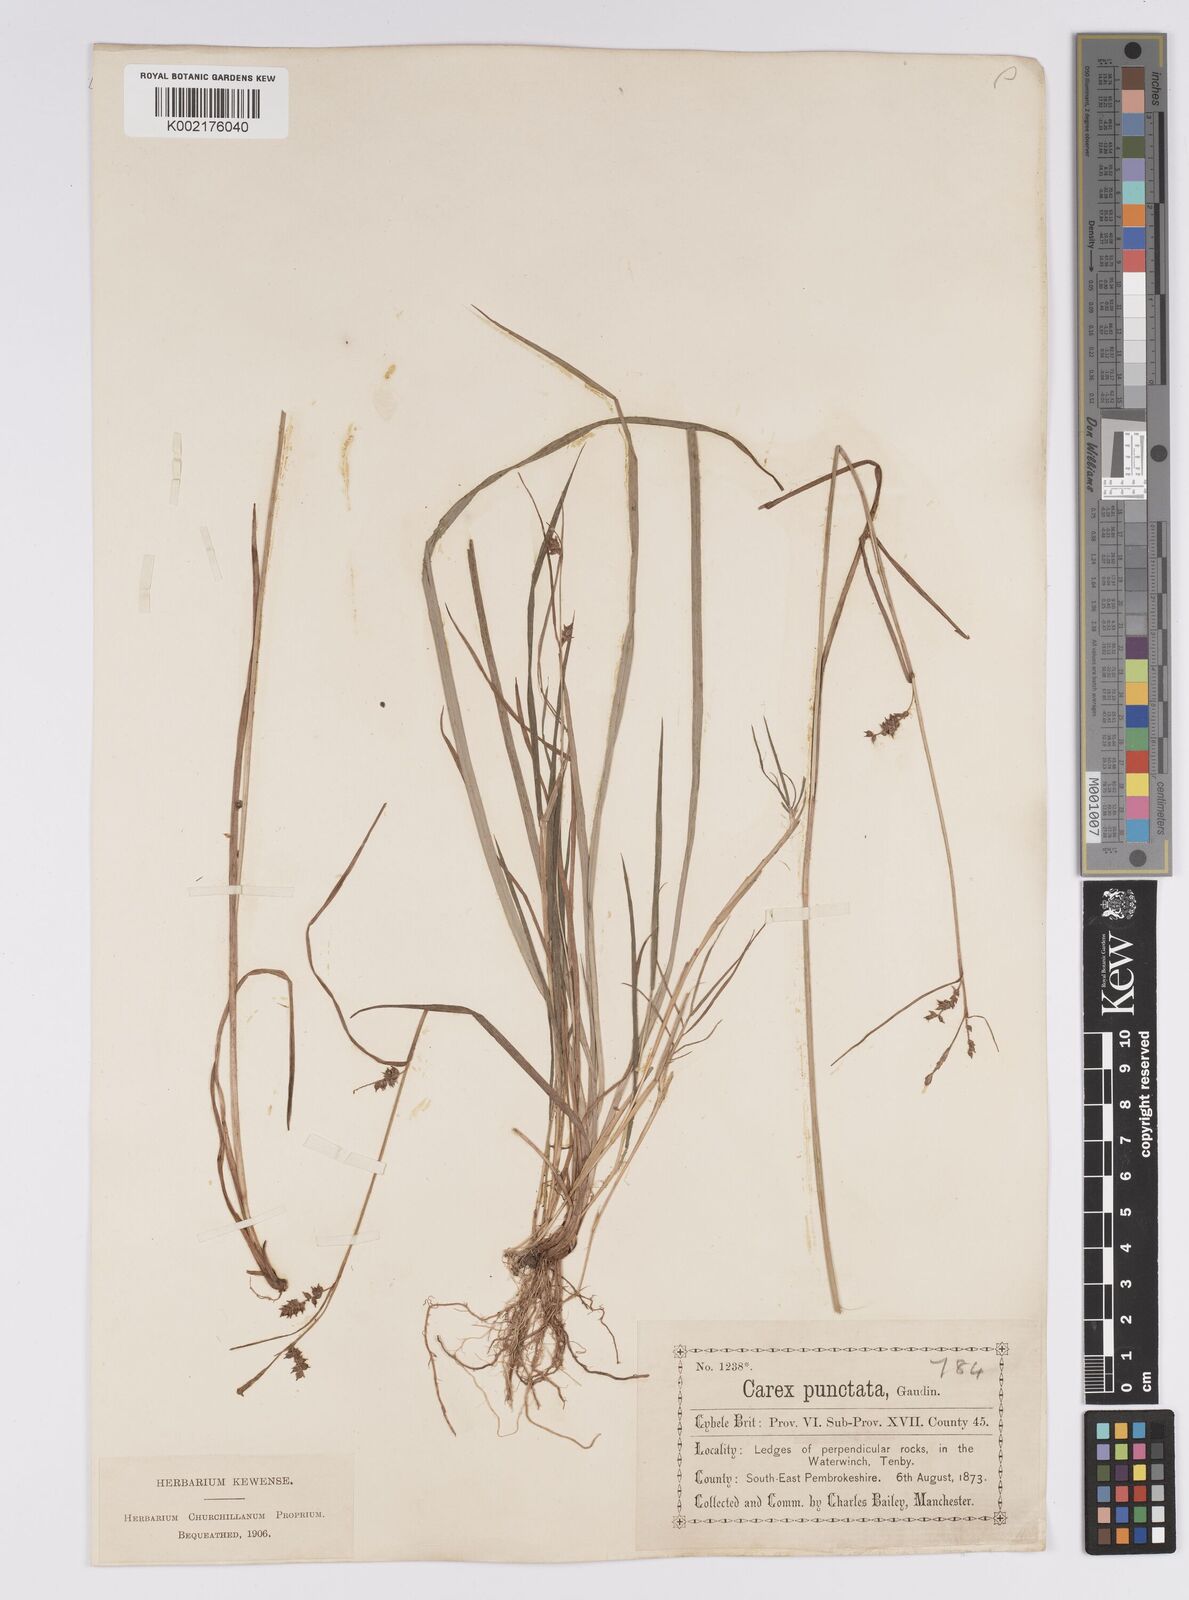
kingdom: Plantae
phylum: Tracheophyta
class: Liliopsida
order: Poales
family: Cyperaceae
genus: Carex
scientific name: Carex punctata
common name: Dotted sedge
